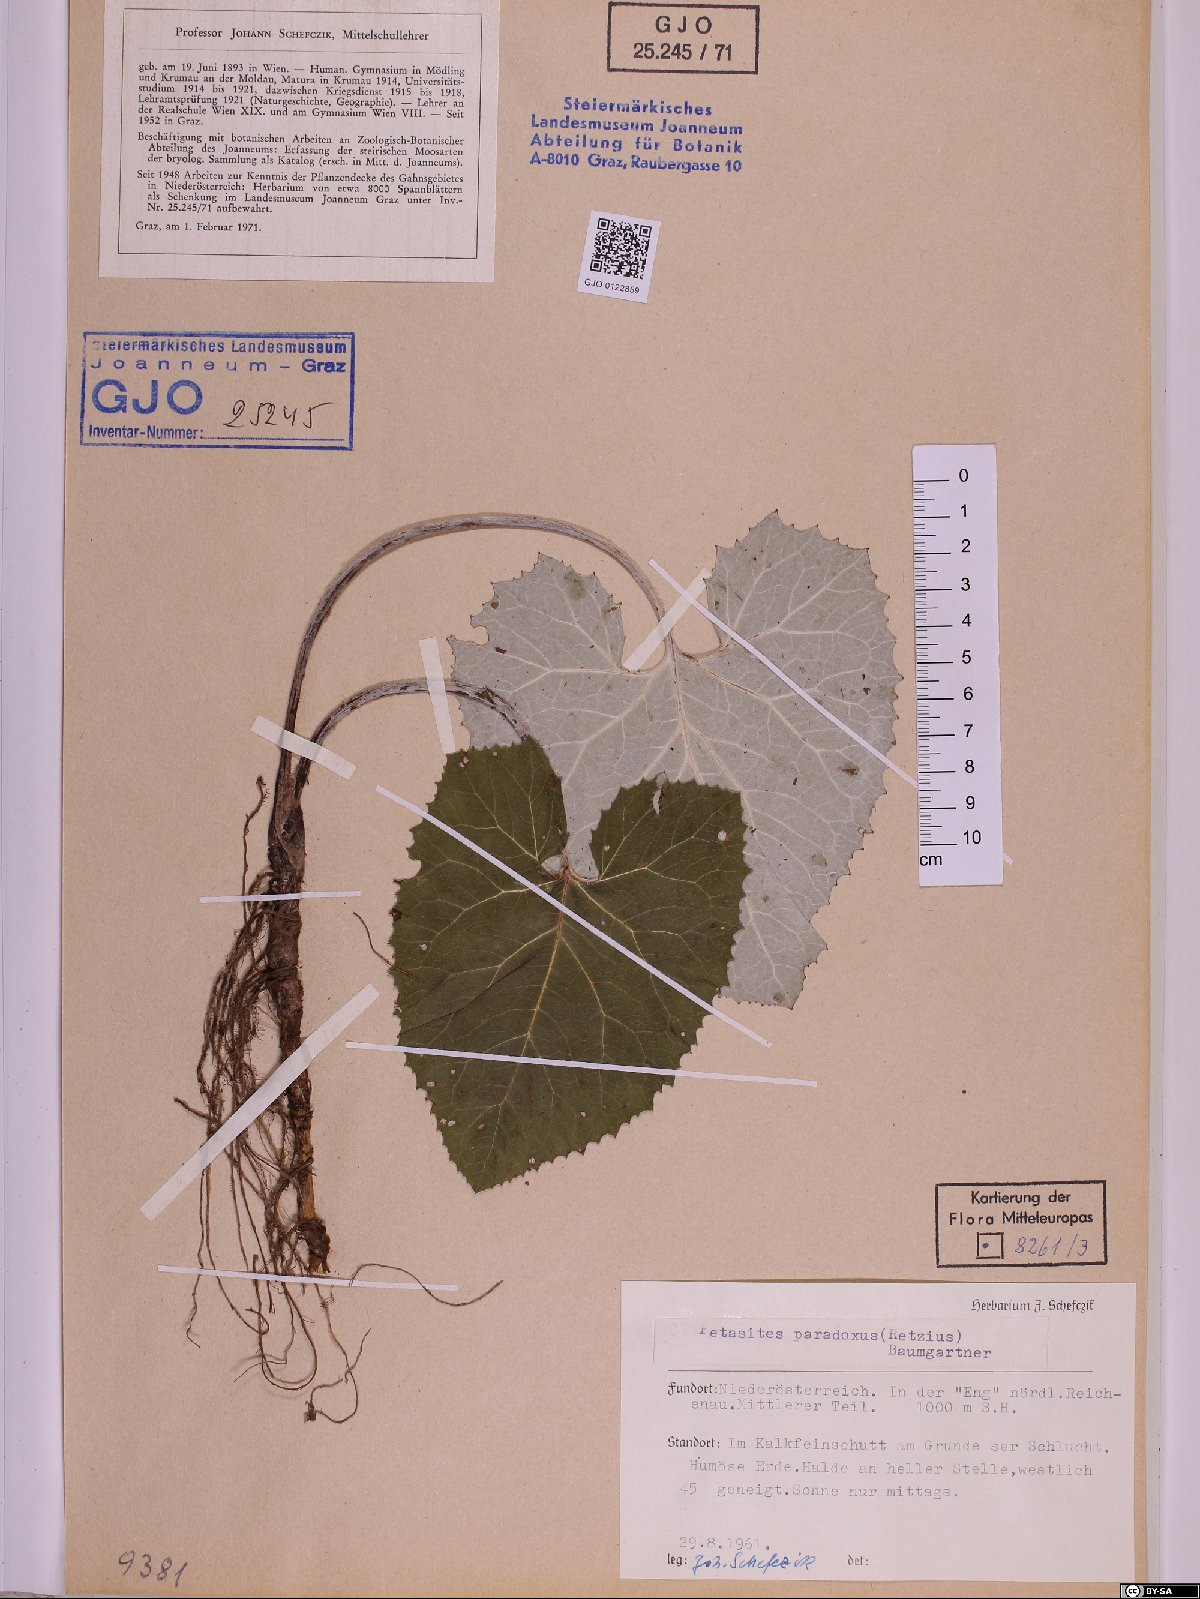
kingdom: Plantae
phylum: Tracheophyta
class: Magnoliopsida
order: Asterales
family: Asteraceae
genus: Petasites
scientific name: Petasites paradoxus
